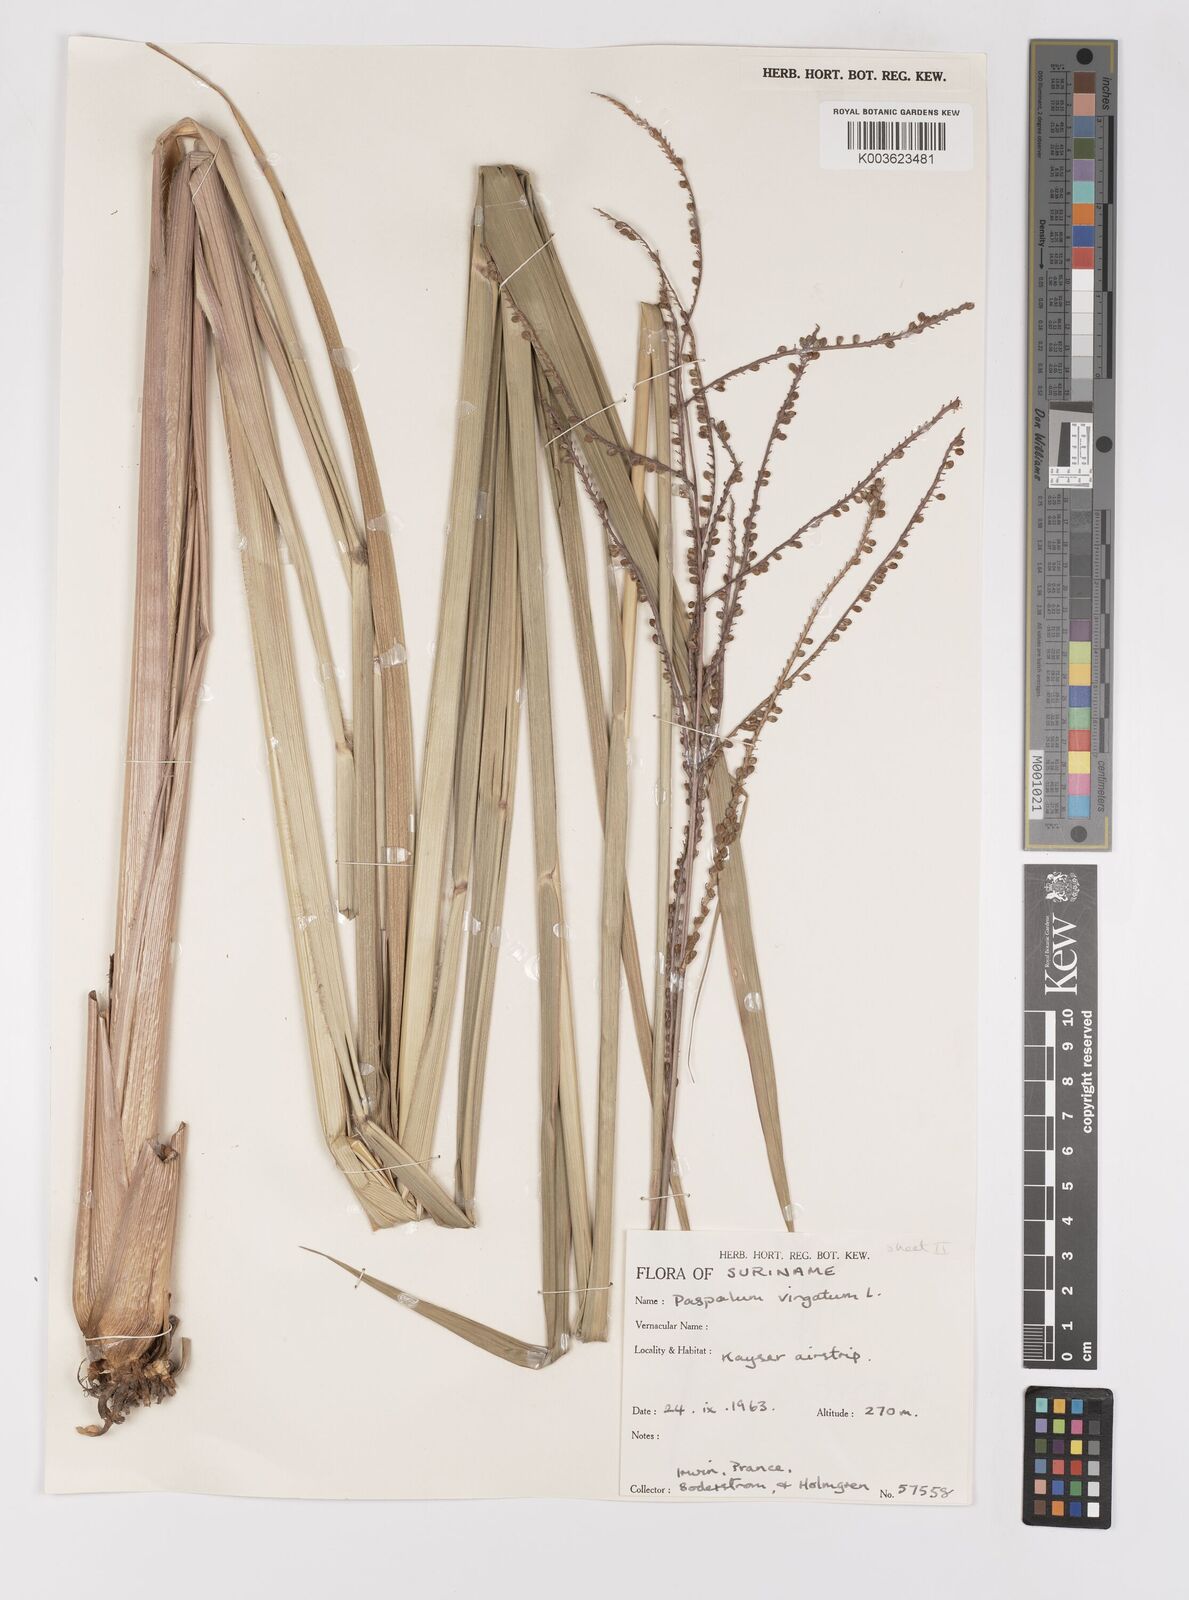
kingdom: Plantae
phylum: Tracheophyta
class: Liliopsida
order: Poales
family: Poaceae
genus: Paspalum
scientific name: Paspalum virgatum
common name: Talquezal
